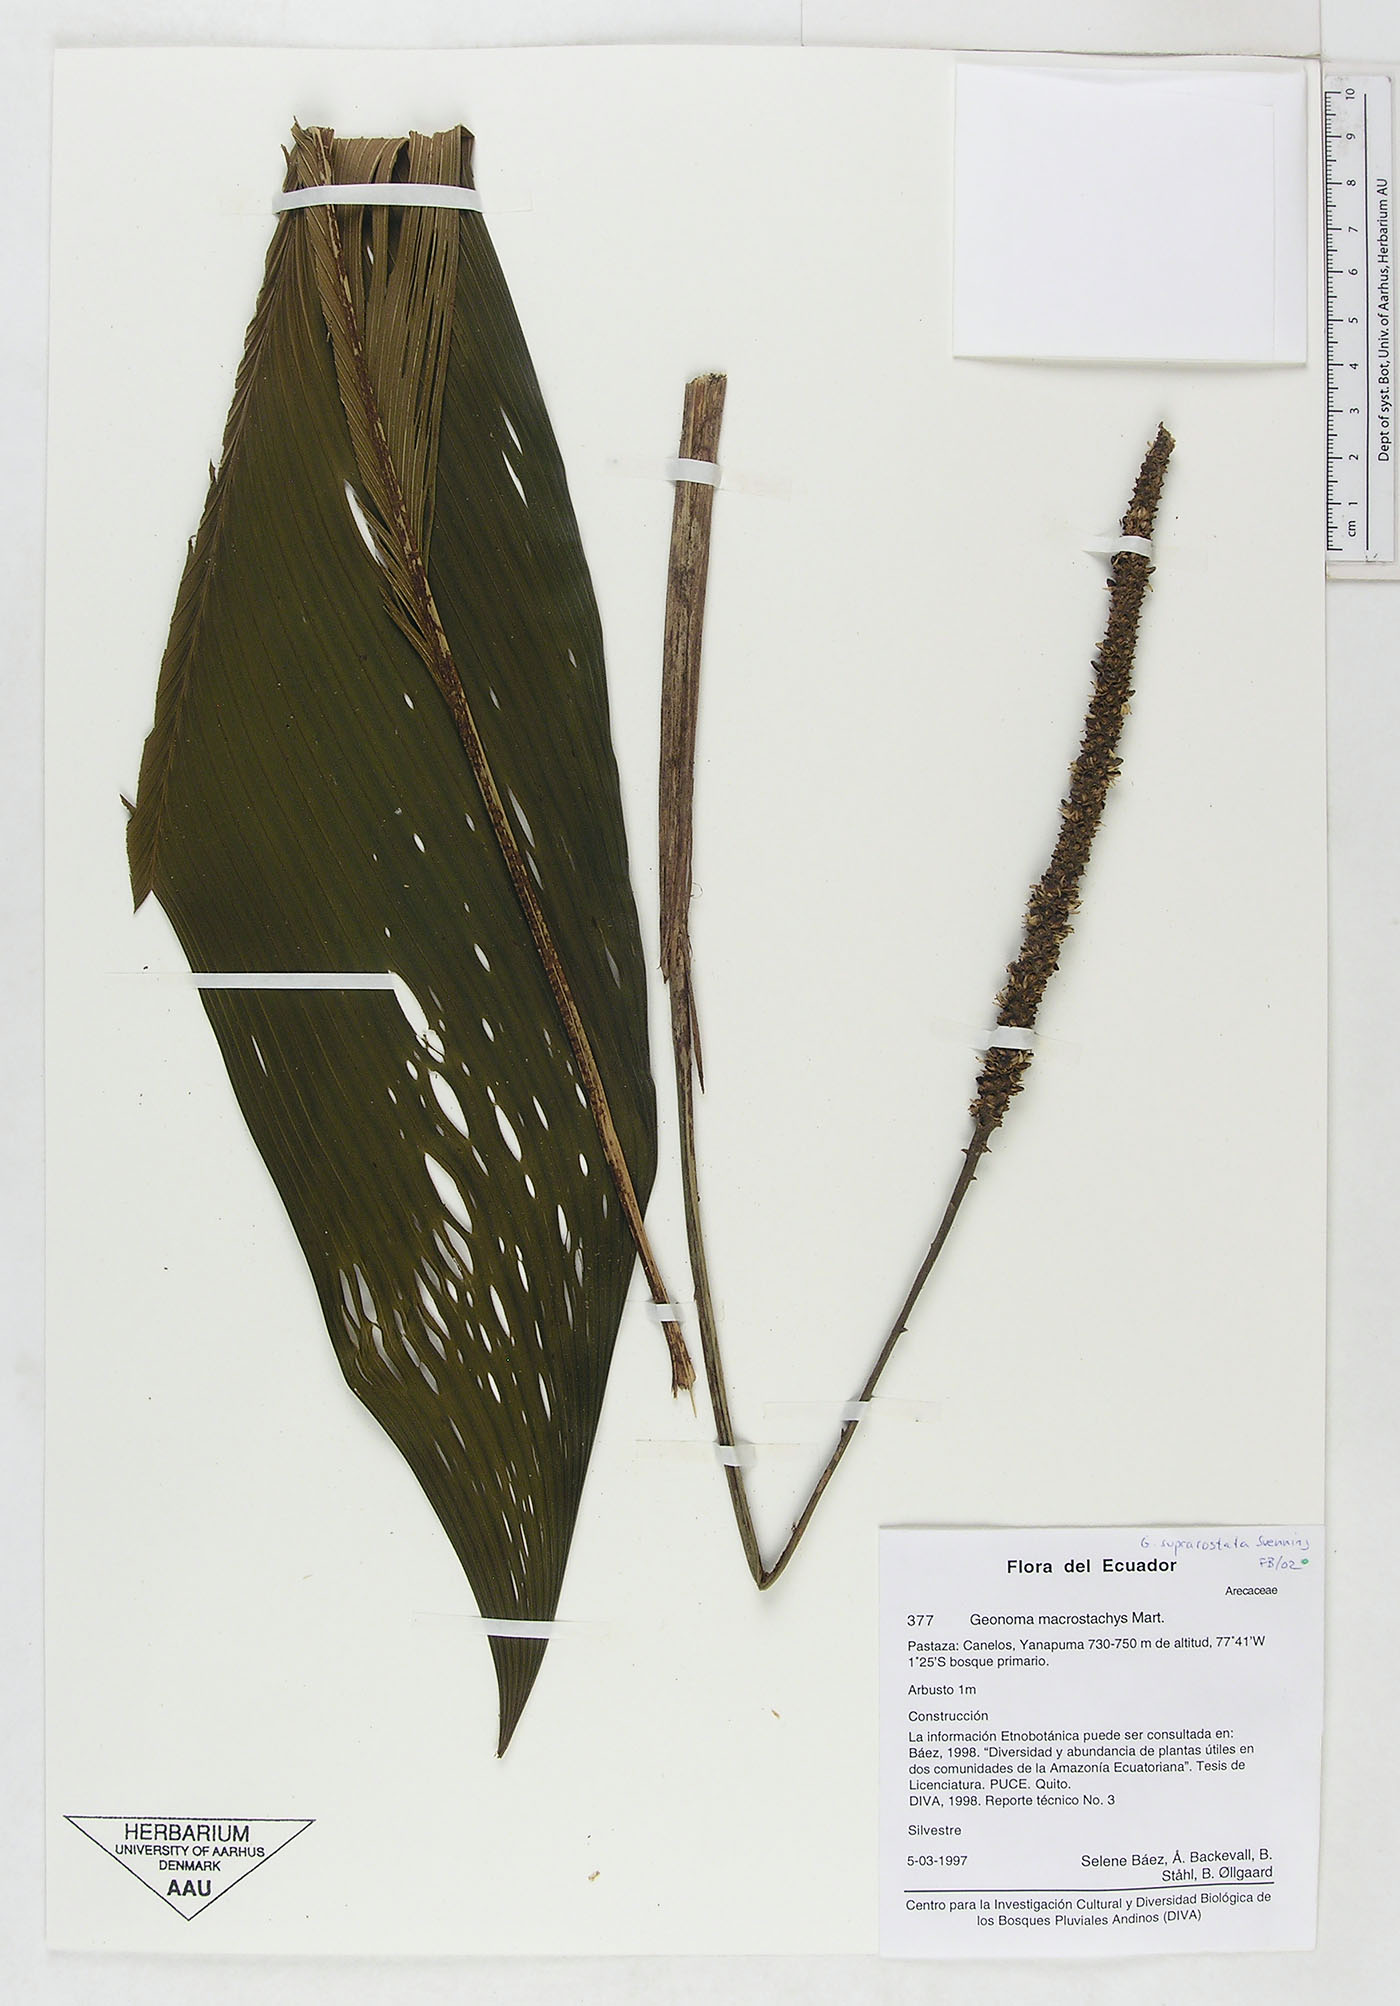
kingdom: Plantae
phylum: Tracheophyta
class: Liliopsida
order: Arecales
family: Arecaceae
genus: Geonoma
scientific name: Geonoma macrostachys
